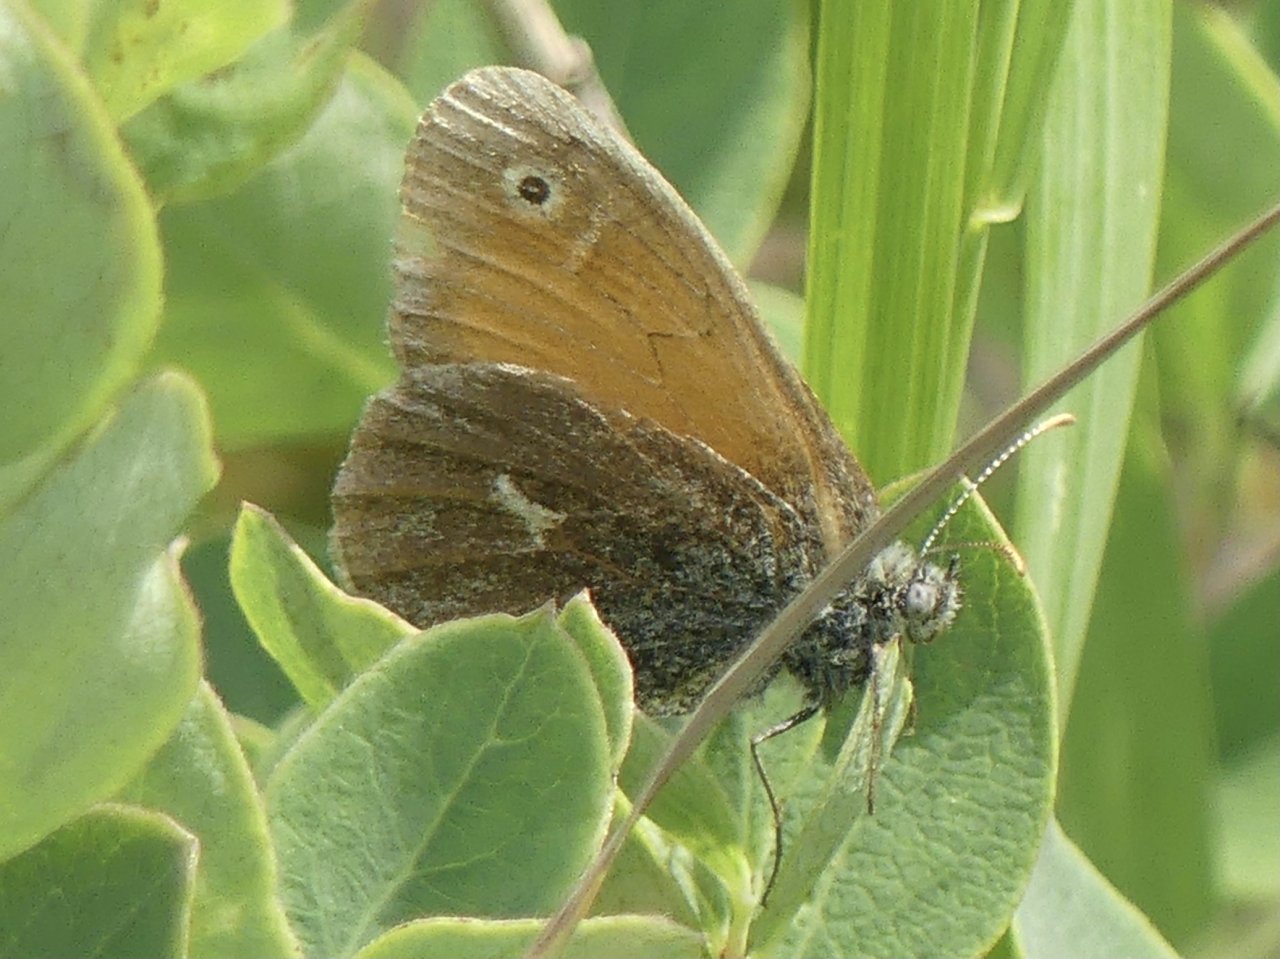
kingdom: Animalia
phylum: Arthropoda
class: Insecta
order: Lepidoptera
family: Nymphalidae
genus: Coenonympha
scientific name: Coenonympha tullia
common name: Large Heath
